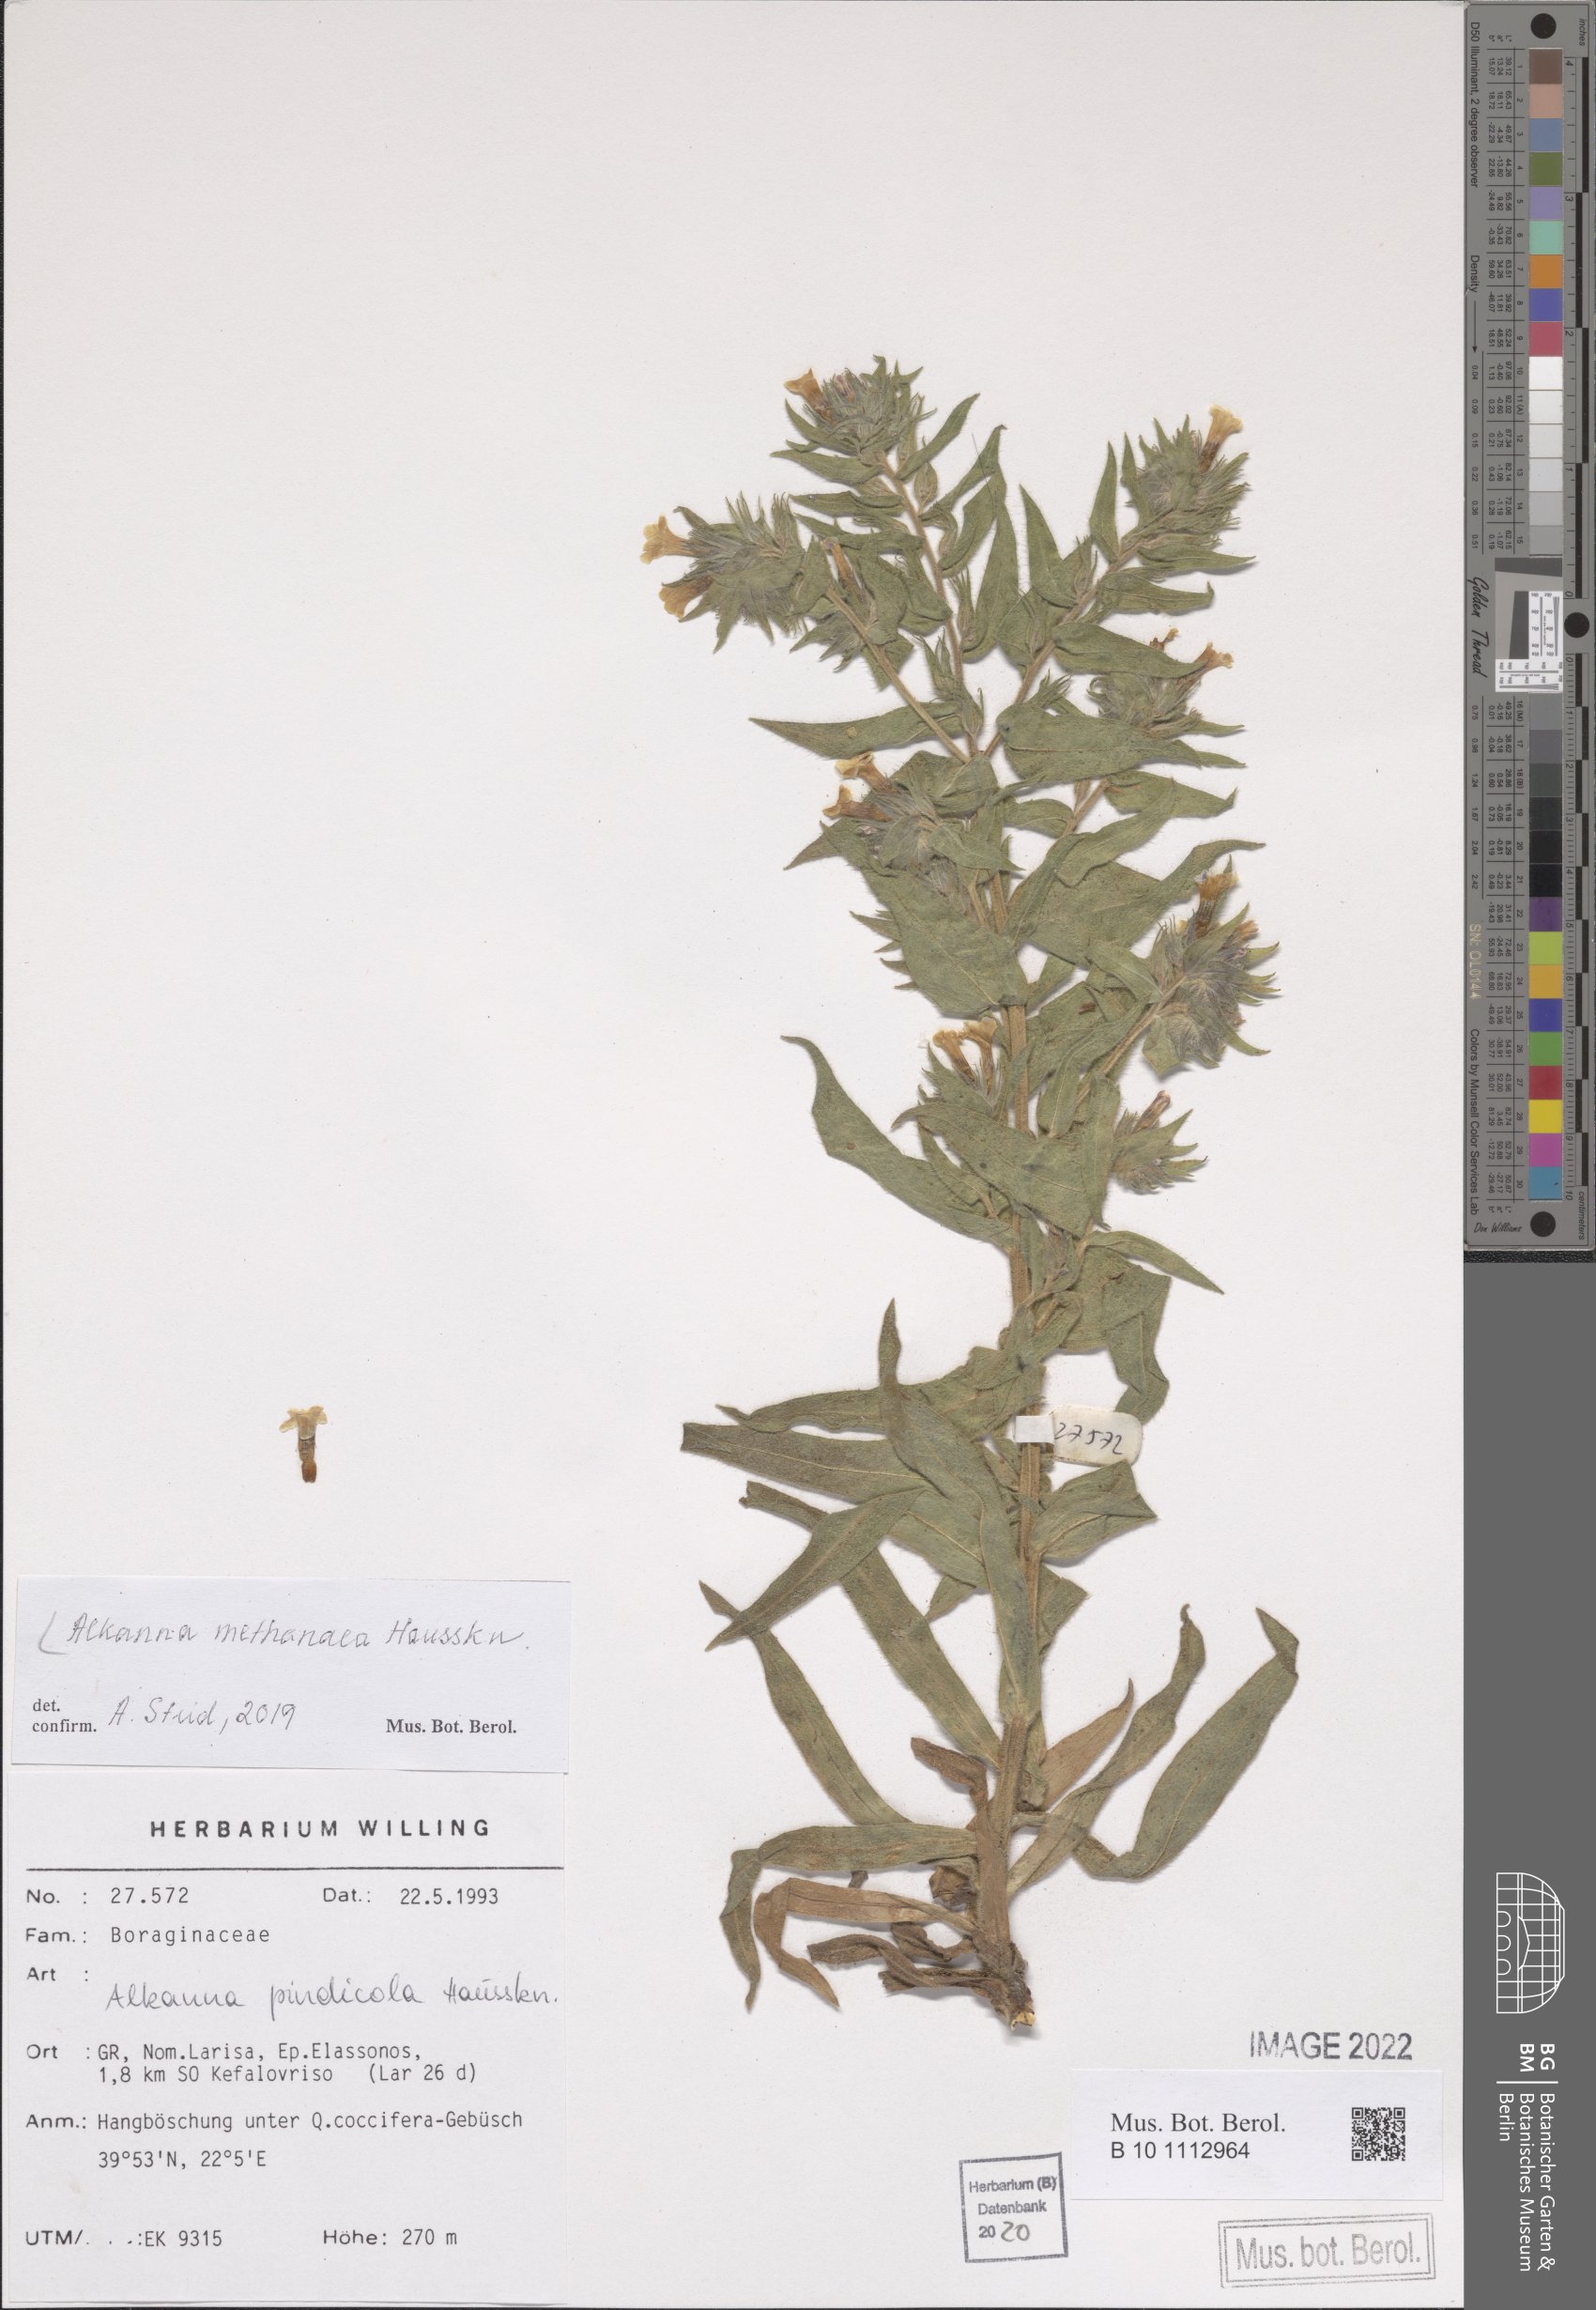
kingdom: Plantae
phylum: Tracheophyta
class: Magnoliopsida
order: Boraginales
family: Boraginaceae
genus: Alkanna
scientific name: Alkanna methanaea
